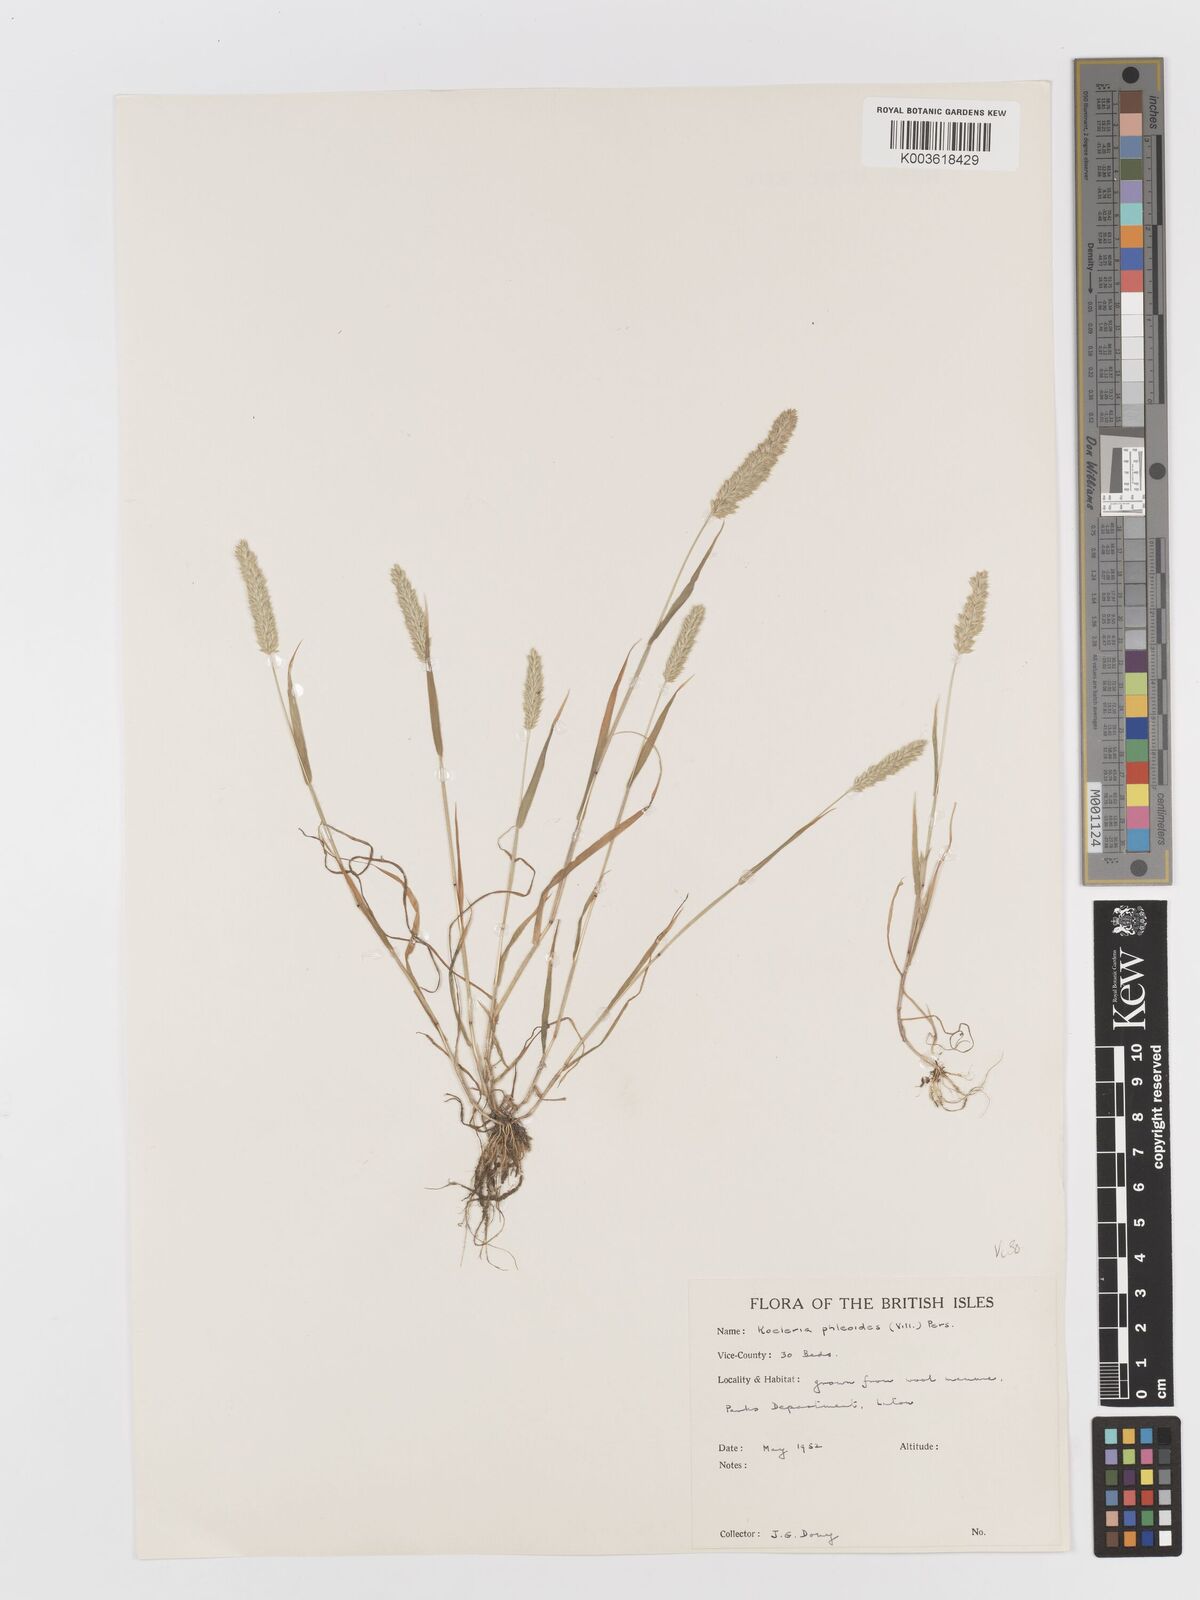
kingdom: Plantae
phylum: Tracheophyta
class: Liliopsida
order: Poales
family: Poaceae
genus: Rostraria
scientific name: Rostraria cristata
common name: Mediterranean hair-grass
